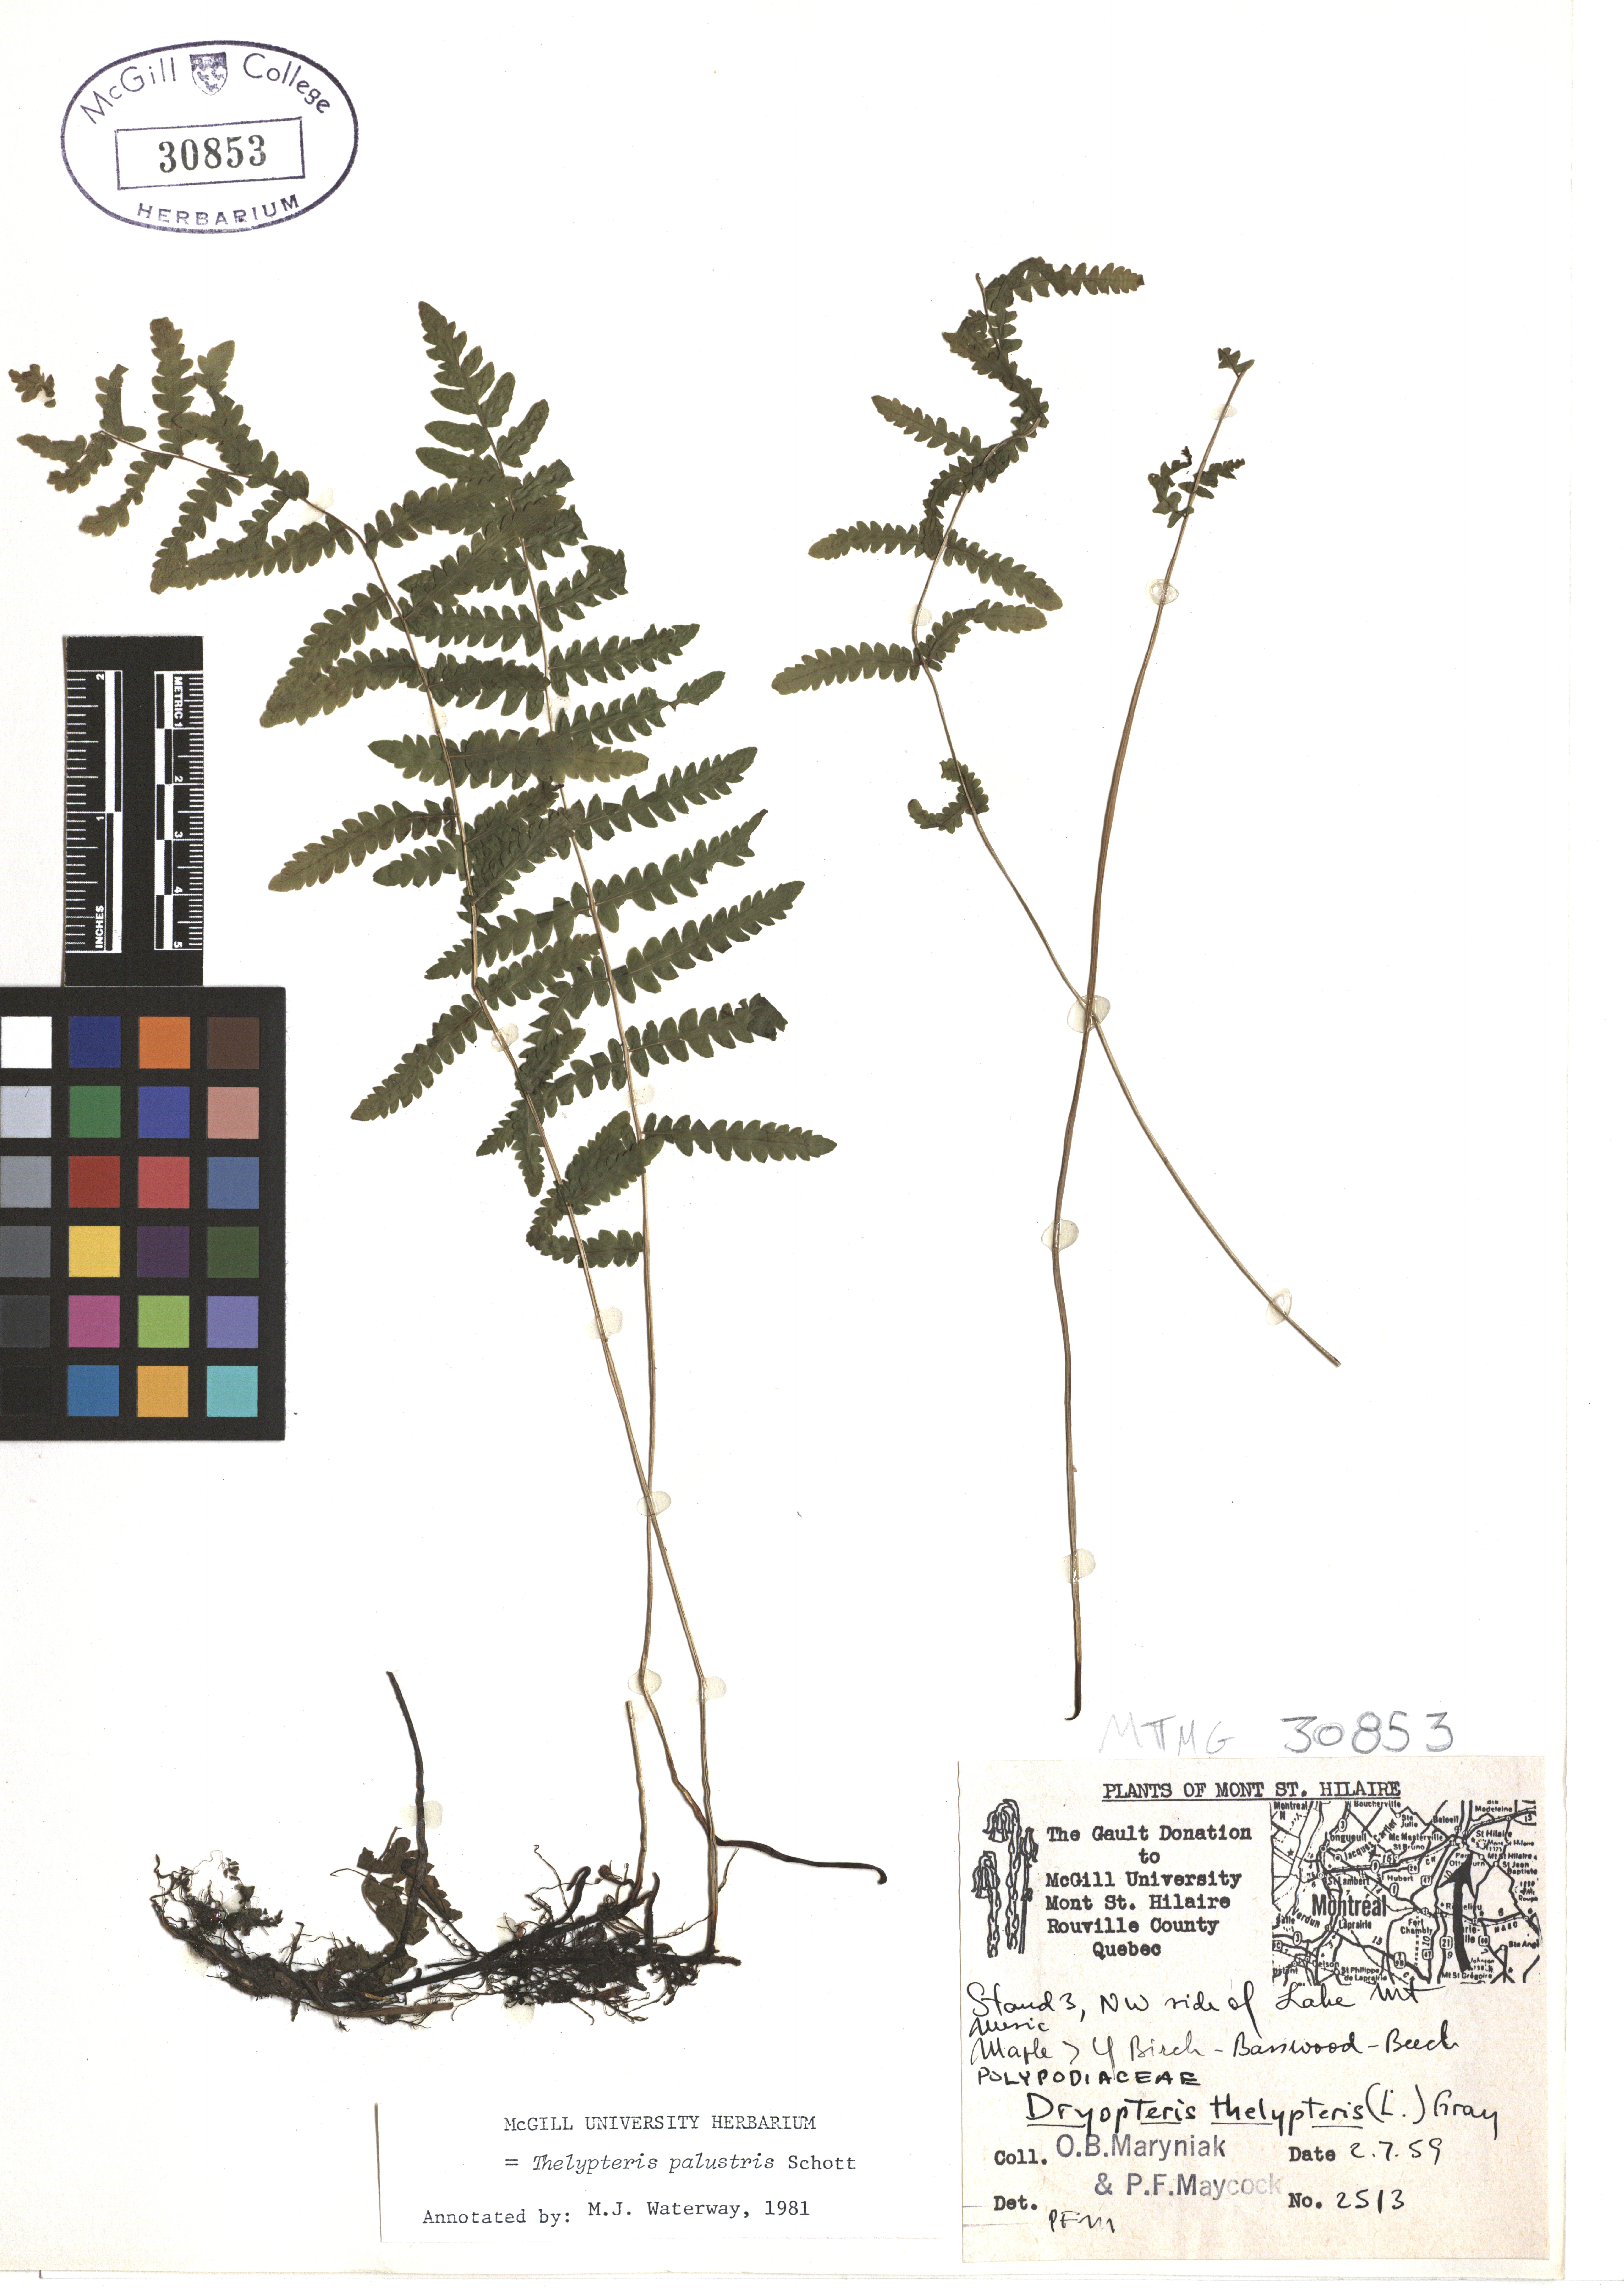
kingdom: Plantae
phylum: Tracheophyta
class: Polypodiopsida
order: Polypodiales
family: Thelypteridaceae
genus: Thelypteris
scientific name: Thelypteris palustris
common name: Marsh fern
